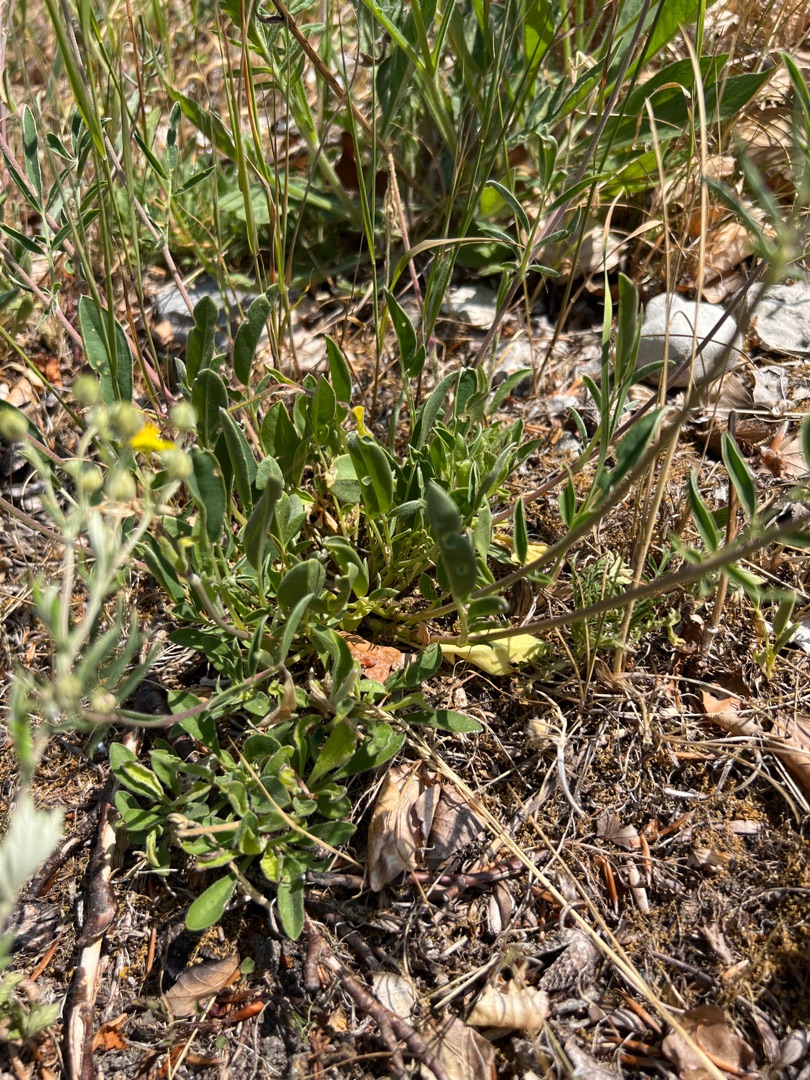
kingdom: Plantae
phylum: Tracheophyta
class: Magnoliopsida
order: Fabales
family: Fabaceae
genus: Anthyllis
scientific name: Anthyllis vulneraria
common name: Rundbælg
